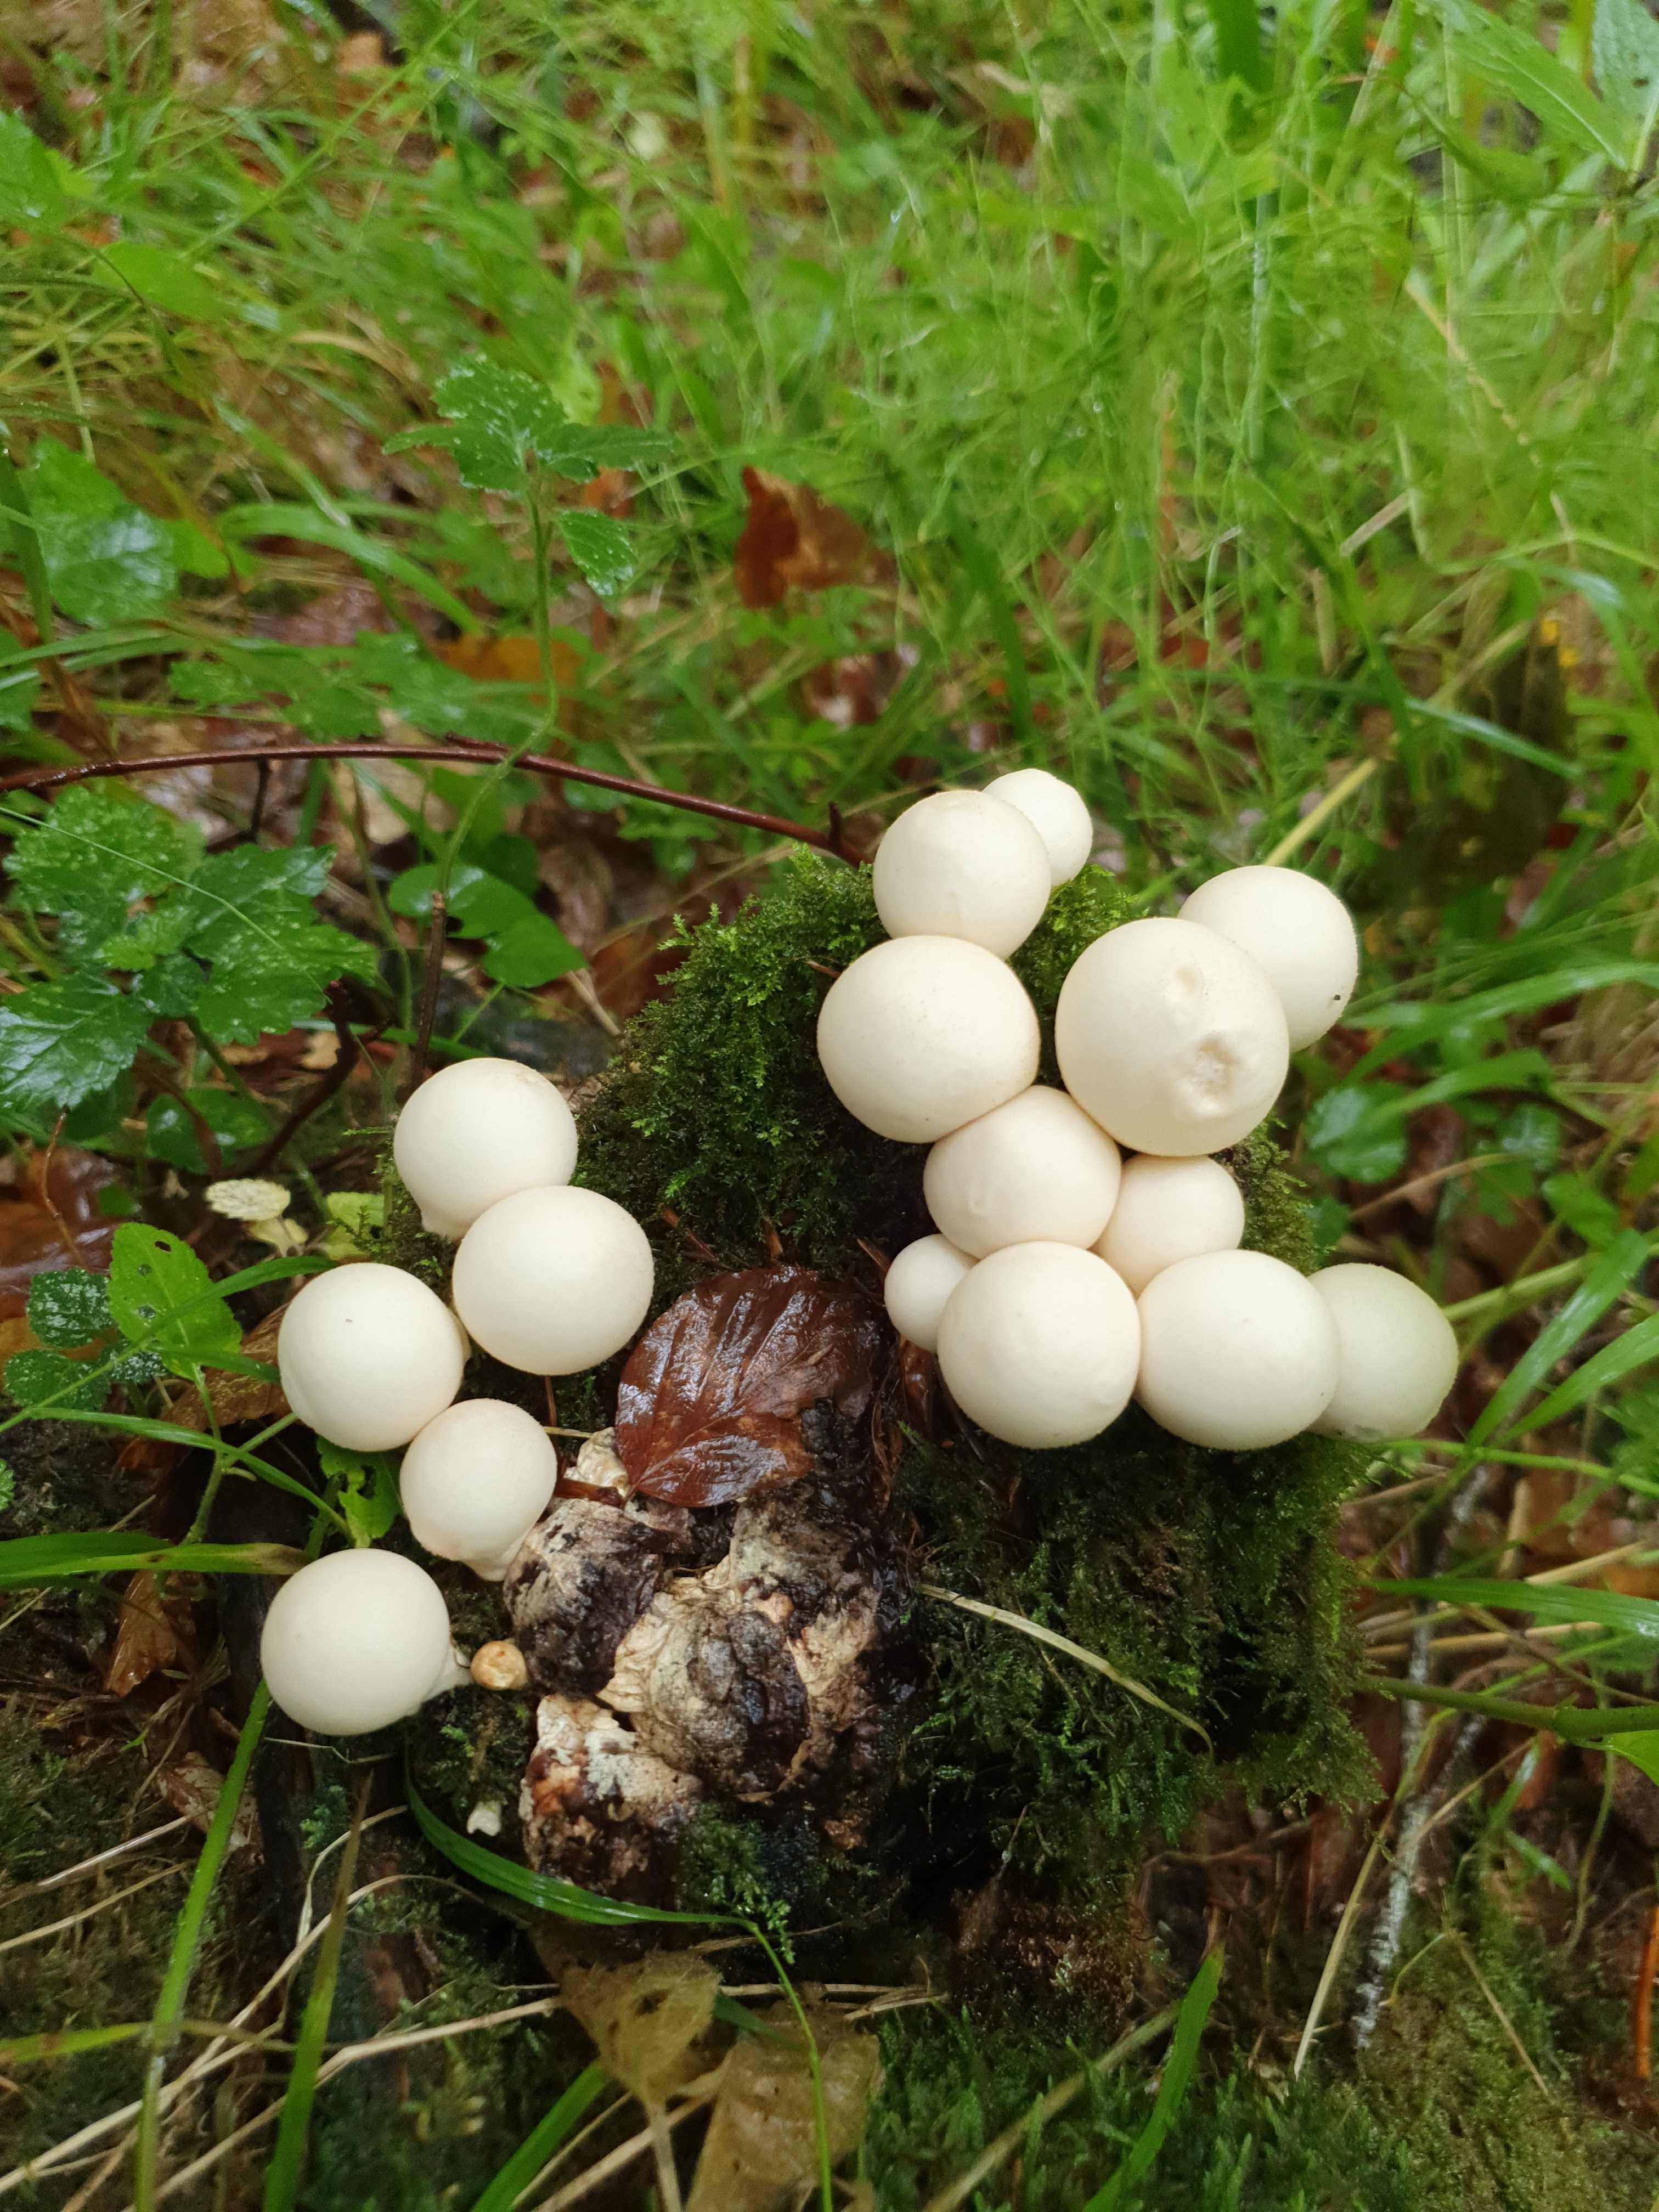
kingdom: Fungi
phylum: Basidiomycota
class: Agaricomycetes
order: Agaricales
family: Lycoperdaceae
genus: Apioperdon
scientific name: Apioperdon pyriforme
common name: pære-støvbold
